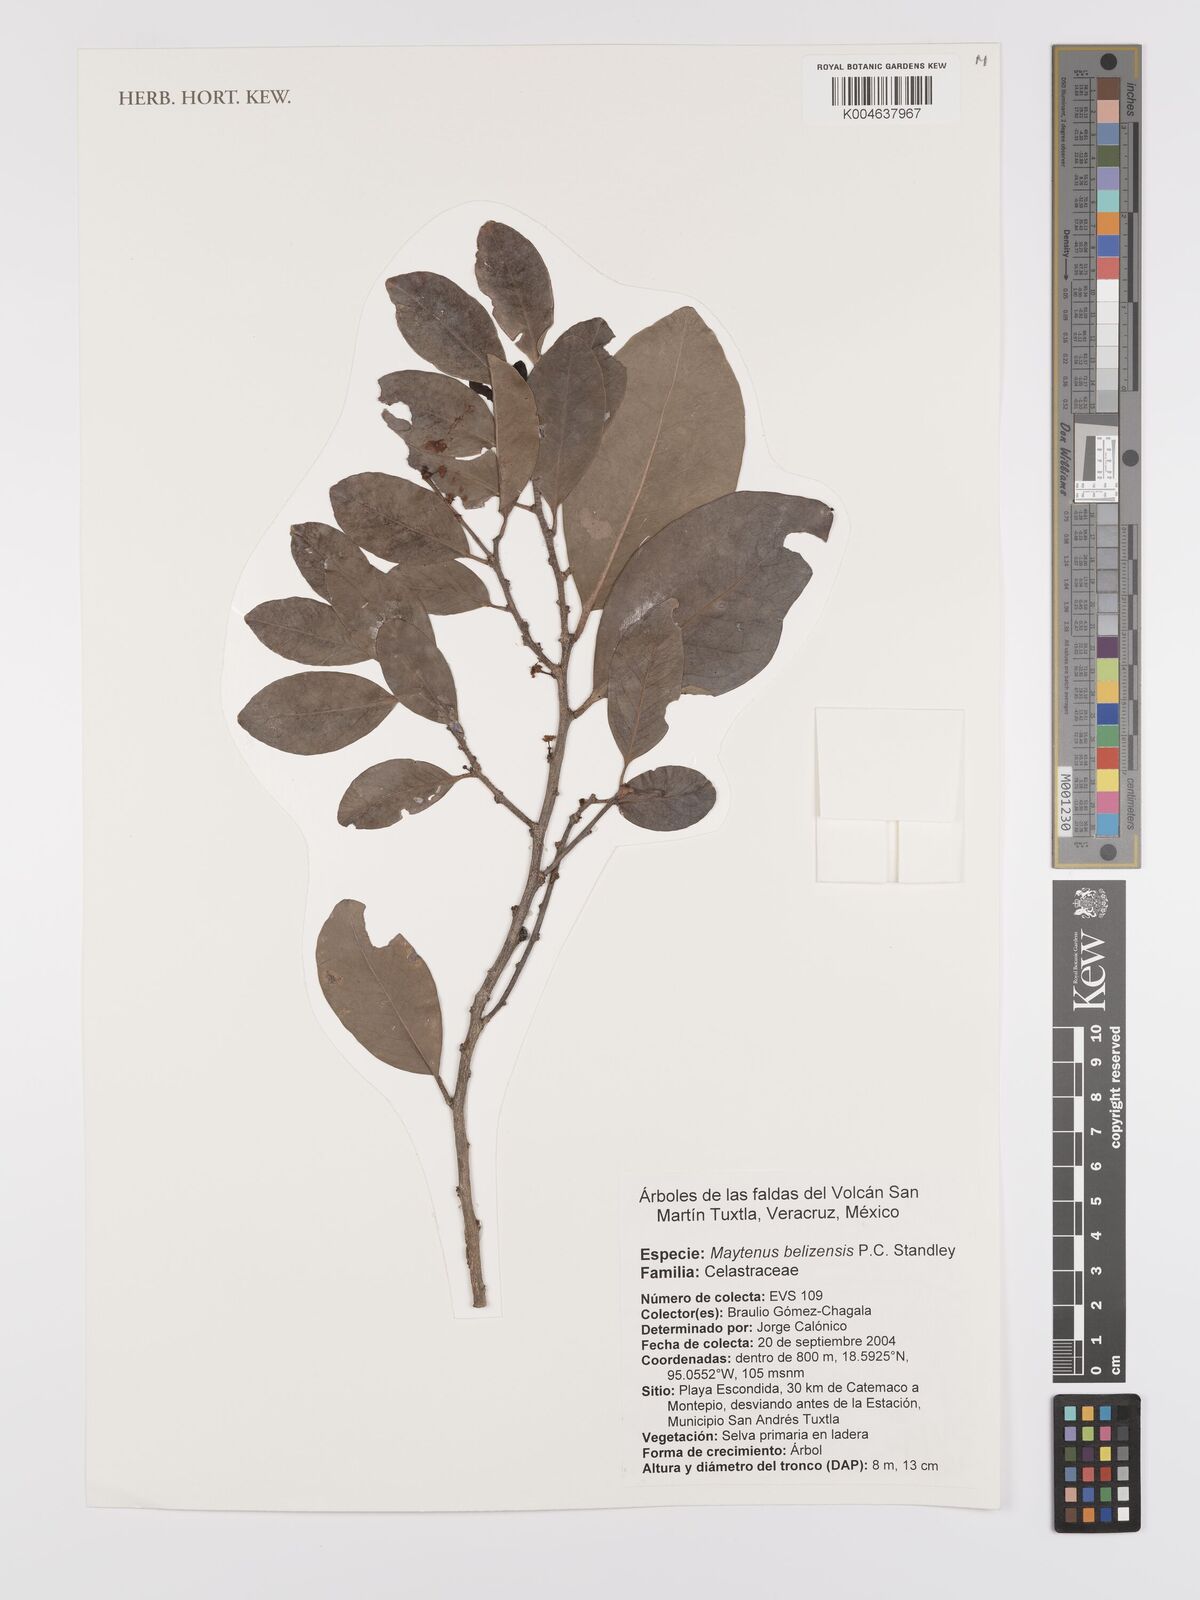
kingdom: Plantae
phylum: Tracheophyta
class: Magnoliopsida
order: Celastrales
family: Celastraceae
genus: Monteverdia
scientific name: Monteverdia belizensis
